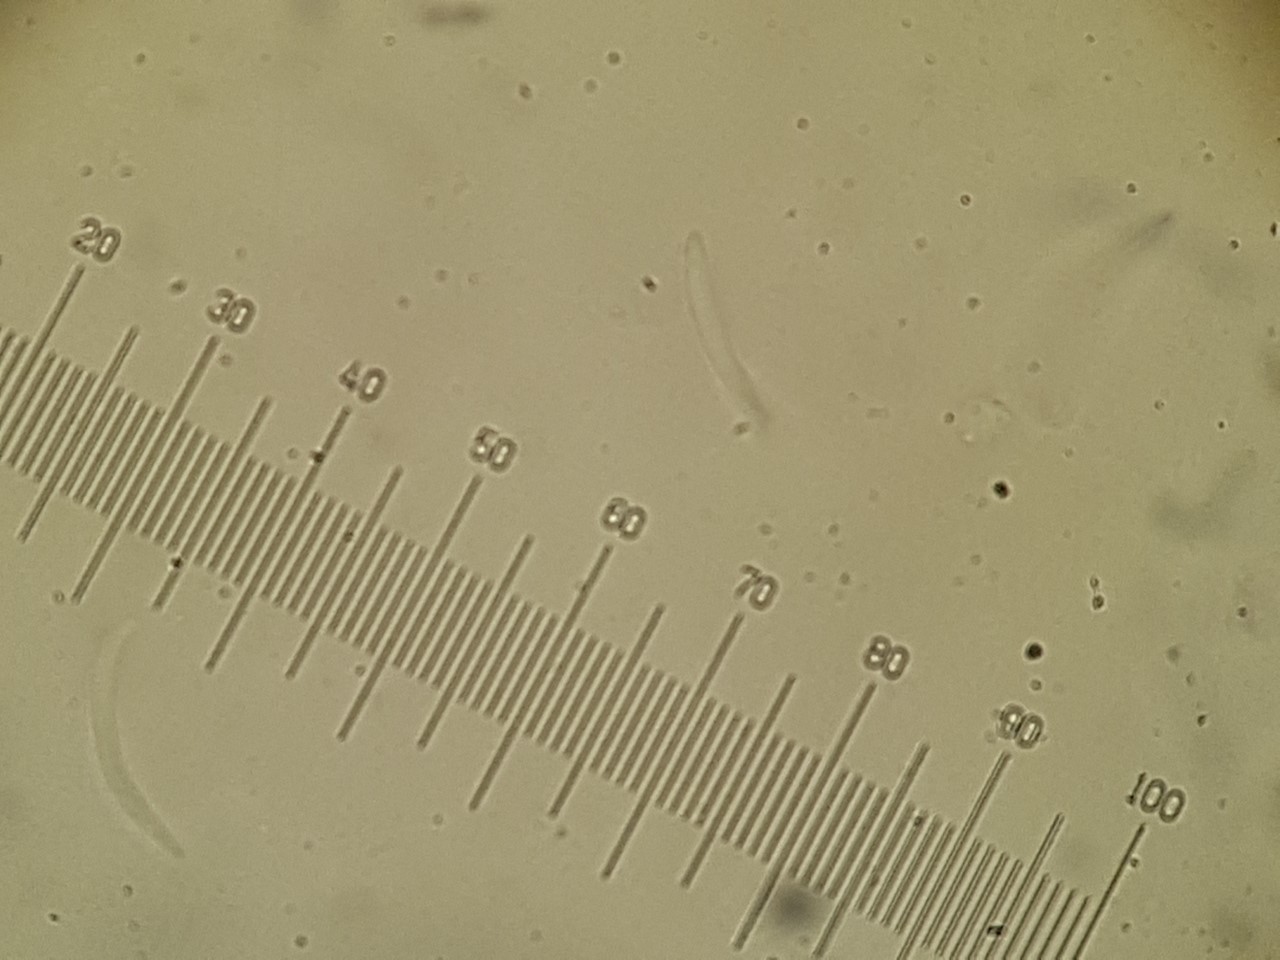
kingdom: Fungi
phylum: Ascomycota
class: Sordariomycetes
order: Diaporthales
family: Diaporthaceae
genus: Diaporthe
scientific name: Diaporthe oncostoma
